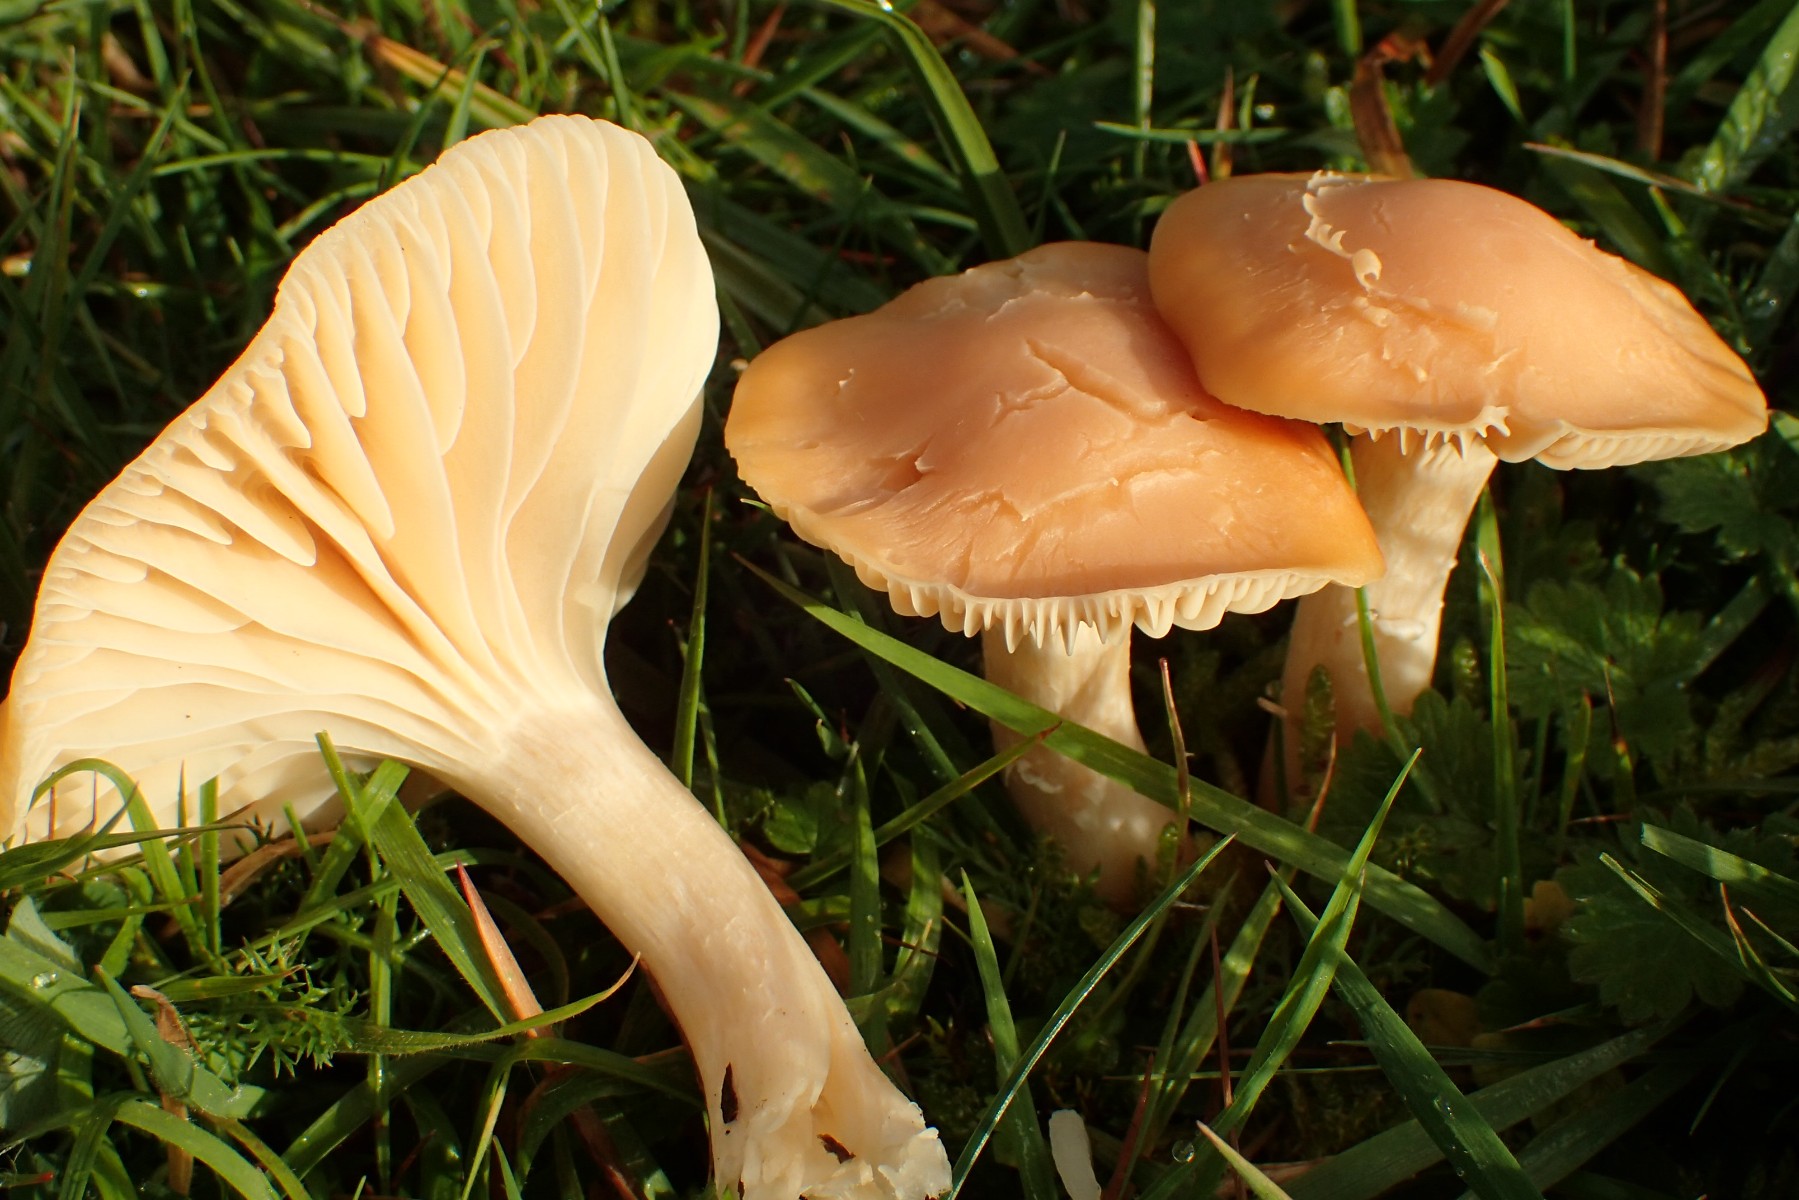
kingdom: Fungi
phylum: Basidiomycota
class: Agaricomycetes
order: Agaricales
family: Hygrophoraceae
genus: Cuphophyllus
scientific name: Cuphophyllus pratensis
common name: eng-vokshat
